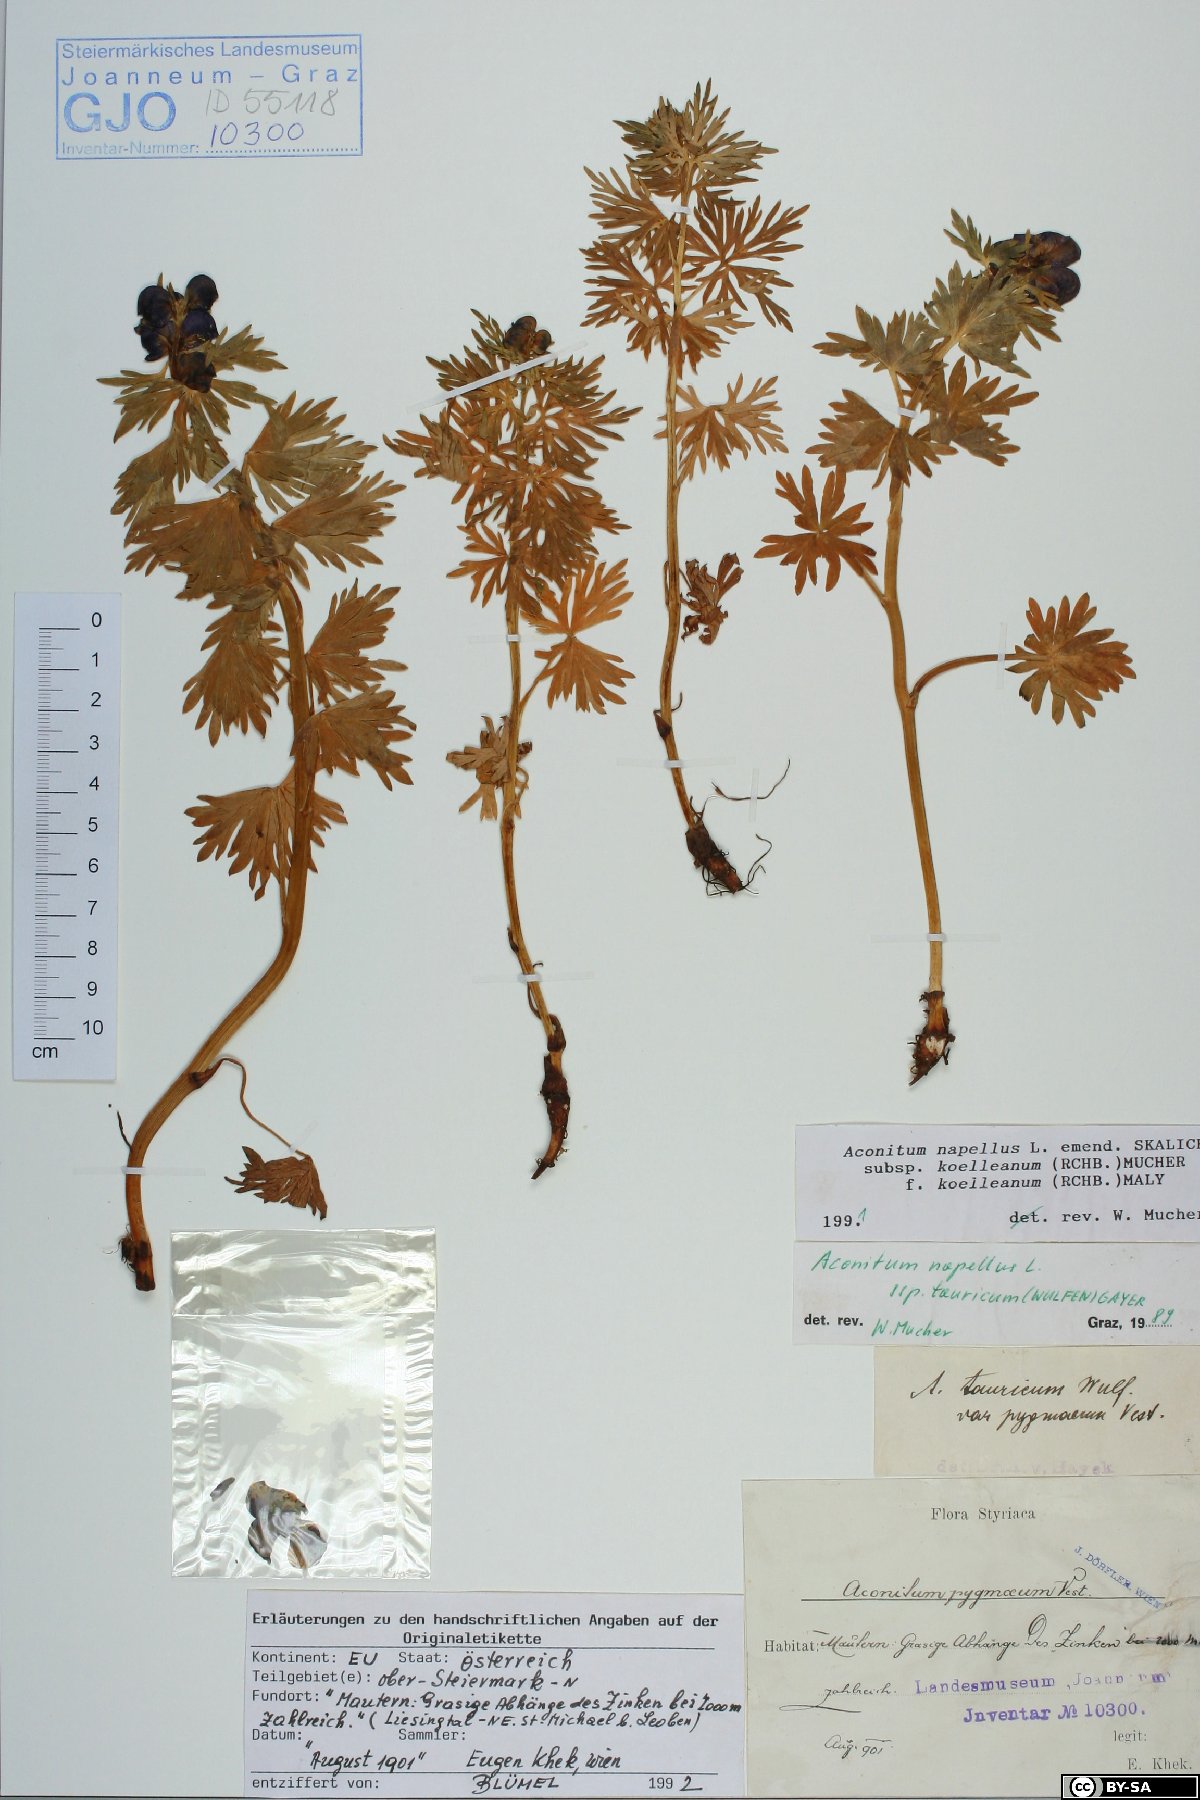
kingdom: Plantae
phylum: Tracheophyta
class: Magnoliopsida
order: Ranunculales
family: Ranunculaceae
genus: Aconitum
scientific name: Aconitum tauricum
